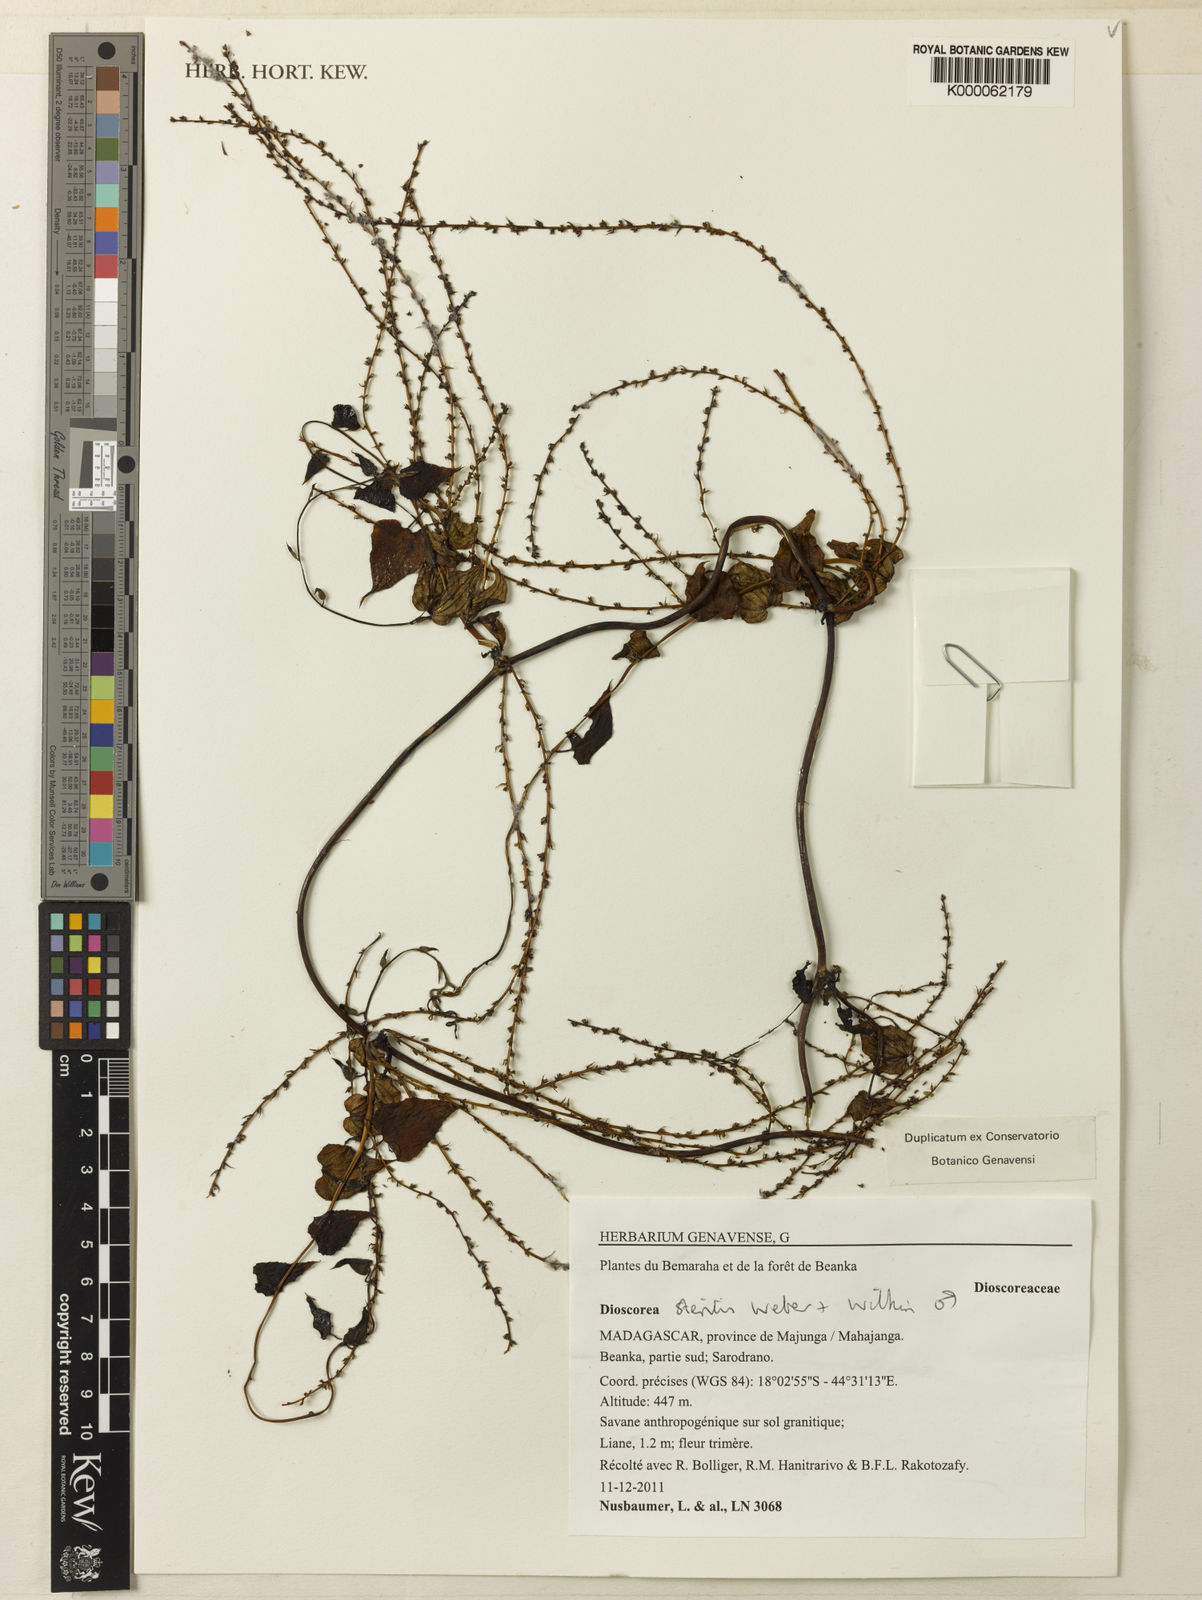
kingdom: Plantae
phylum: Tracheophyta
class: Liliopsida
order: Dioscoreales
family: Dioscoreaceae
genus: Dioscorea
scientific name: Dioscorea sterilis
